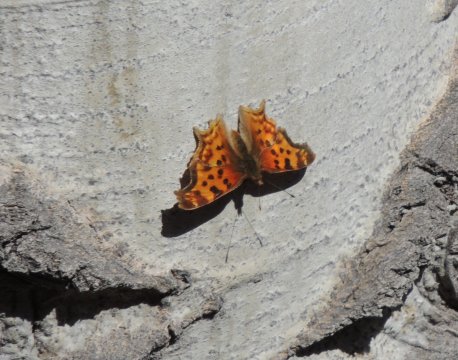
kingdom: Animalia
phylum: Arthropoda
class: Insecta
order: Lepidoptera
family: Nymphalidae
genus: Polygonia
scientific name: Polygonia satyrus
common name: Satyr Comma
